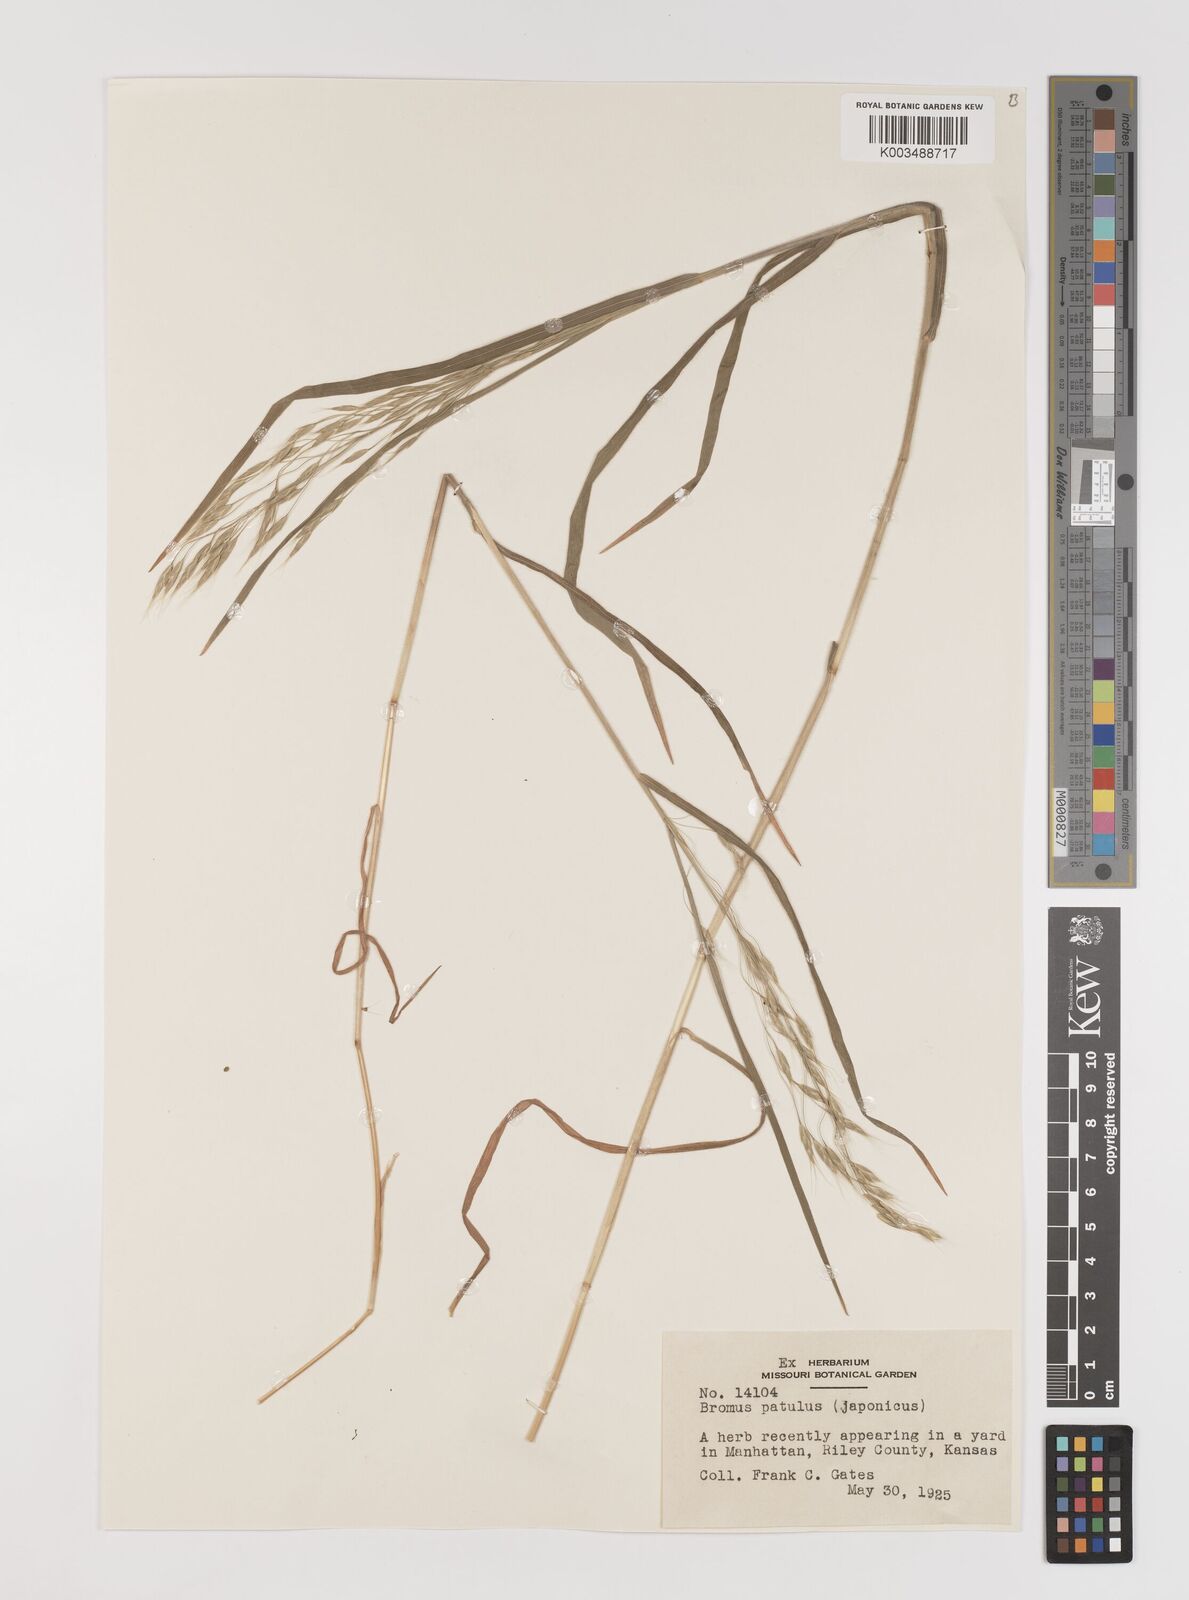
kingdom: Plantae
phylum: Tracheophyta
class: Liliopsida
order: Poales
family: Poaceae
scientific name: Poaceae
